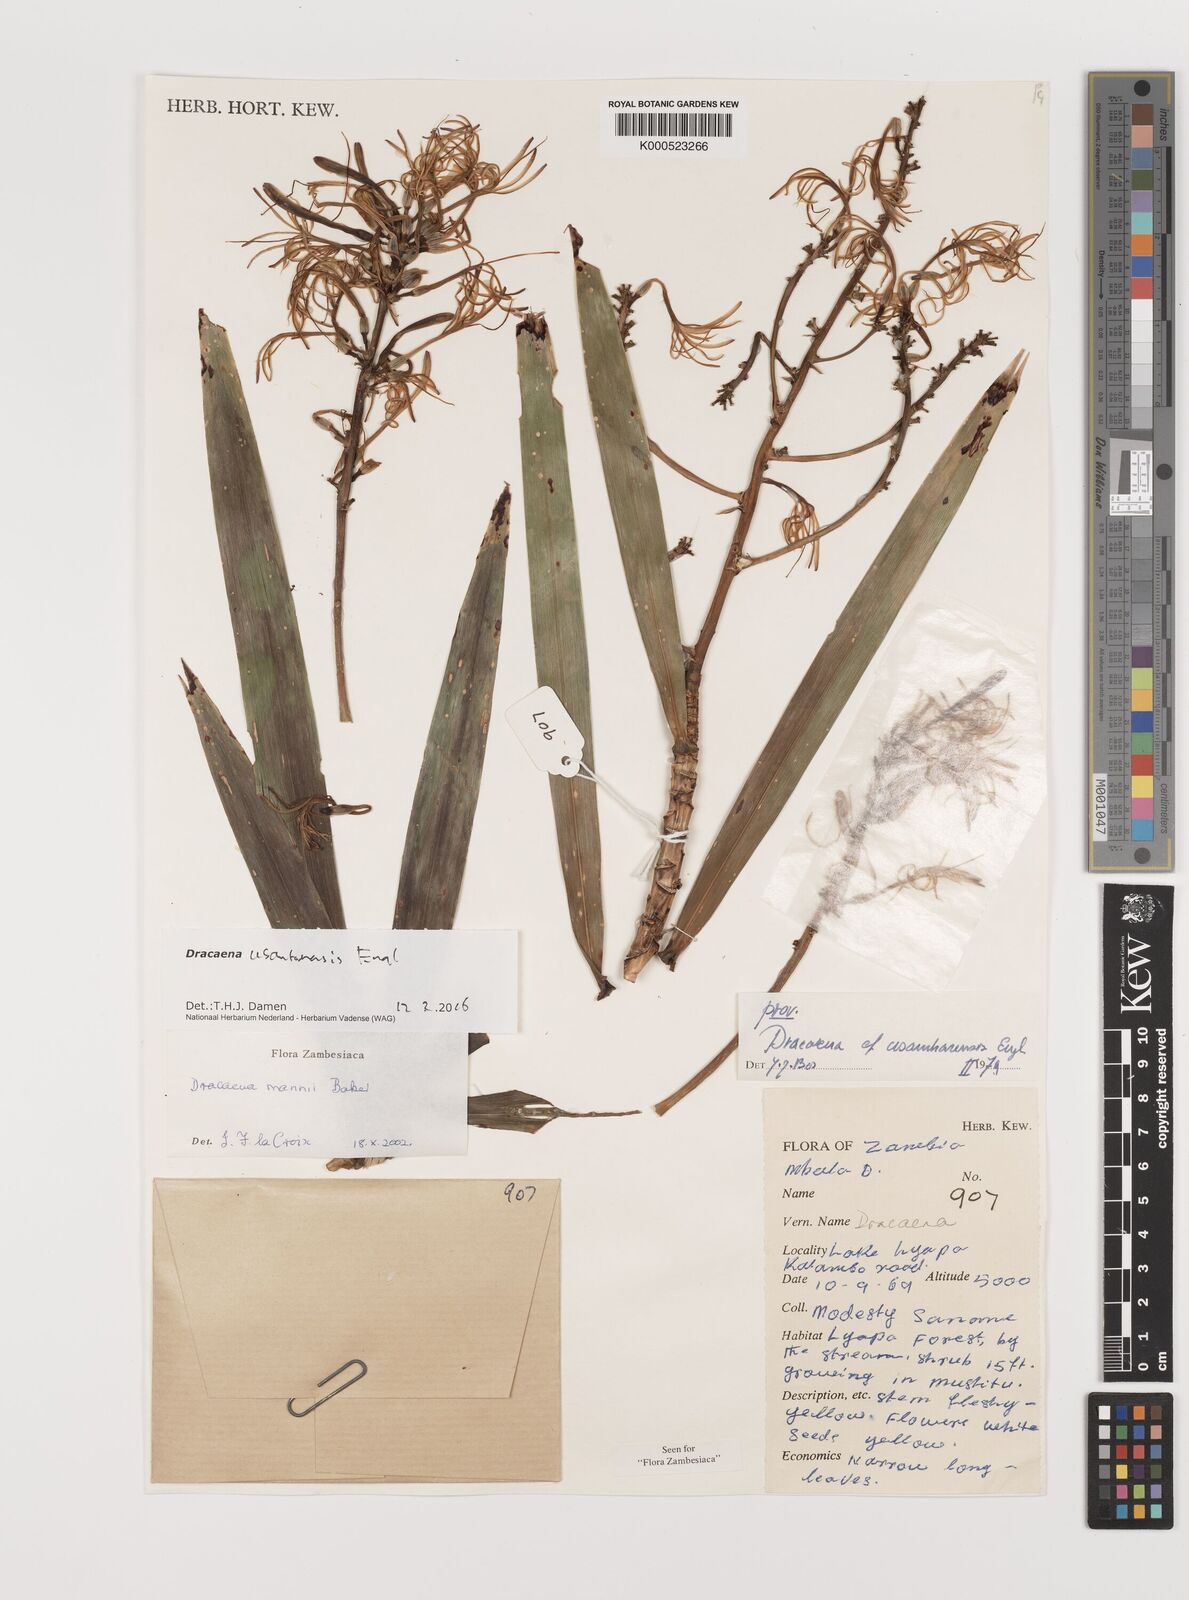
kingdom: Plantae
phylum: Tracheophyta
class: Liliopsida
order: Asparagales
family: Asparagaceae
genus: Dracaena
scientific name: Dracaena usambarensis
